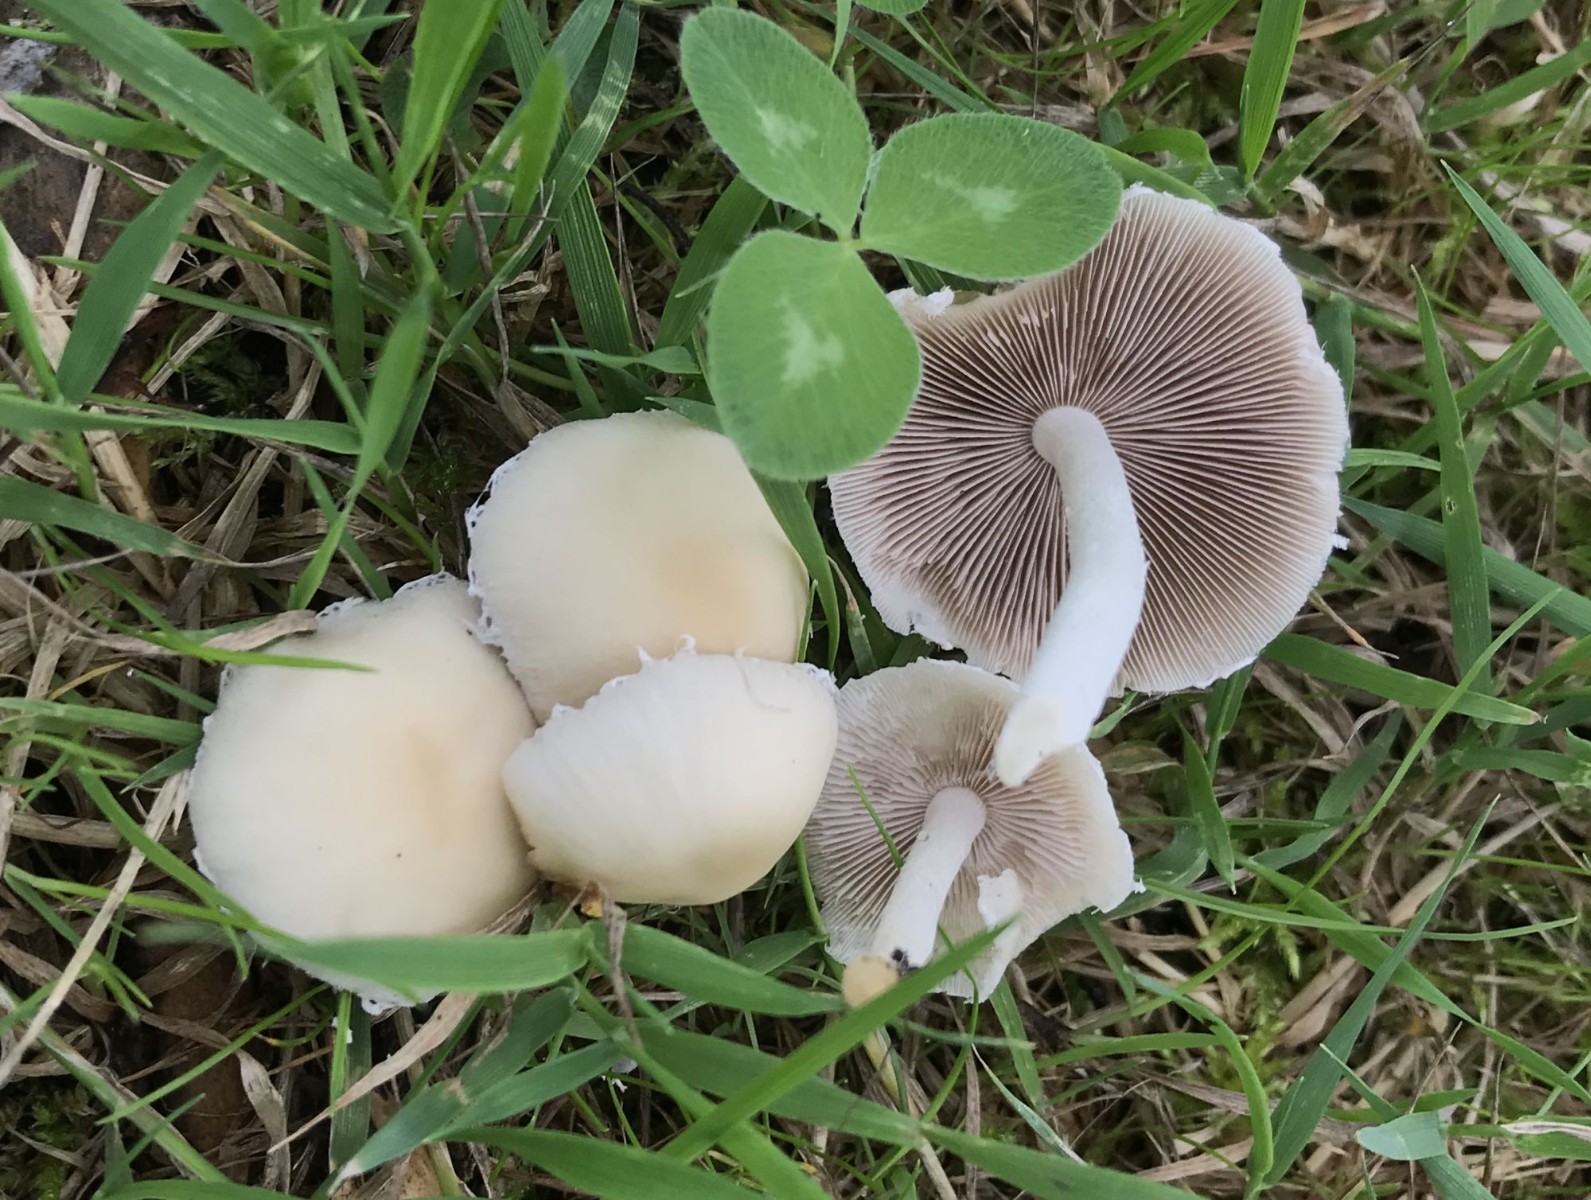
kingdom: Fungi
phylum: Basidiomycota
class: Agaricomycetes
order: Agaricales
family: Psathyrellaceae
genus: Candolleomyces
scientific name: Candolleomyces candolleanus
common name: Candolles mørkhat
